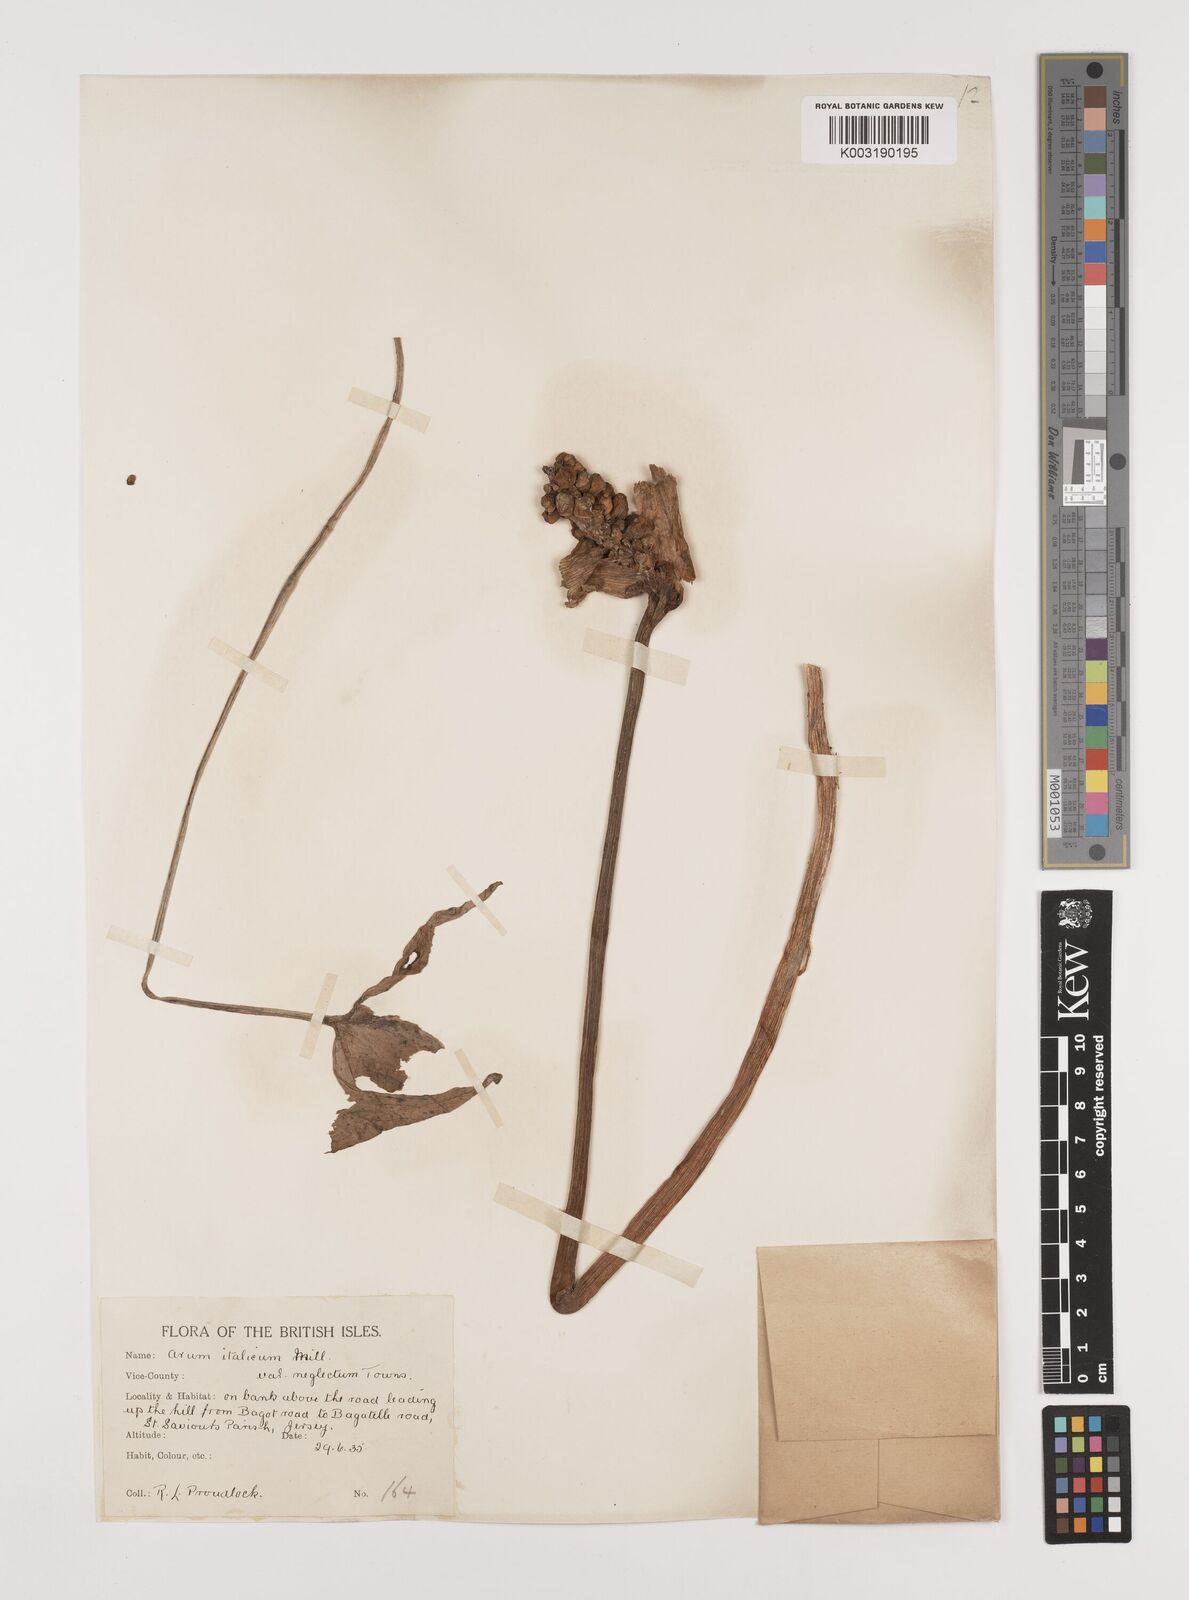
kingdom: Plantae
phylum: Tracheophyta
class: Liliopsida
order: Alismatales
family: Araceae
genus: Arum
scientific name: Arum italicum
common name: Italian lords-and-ladies
